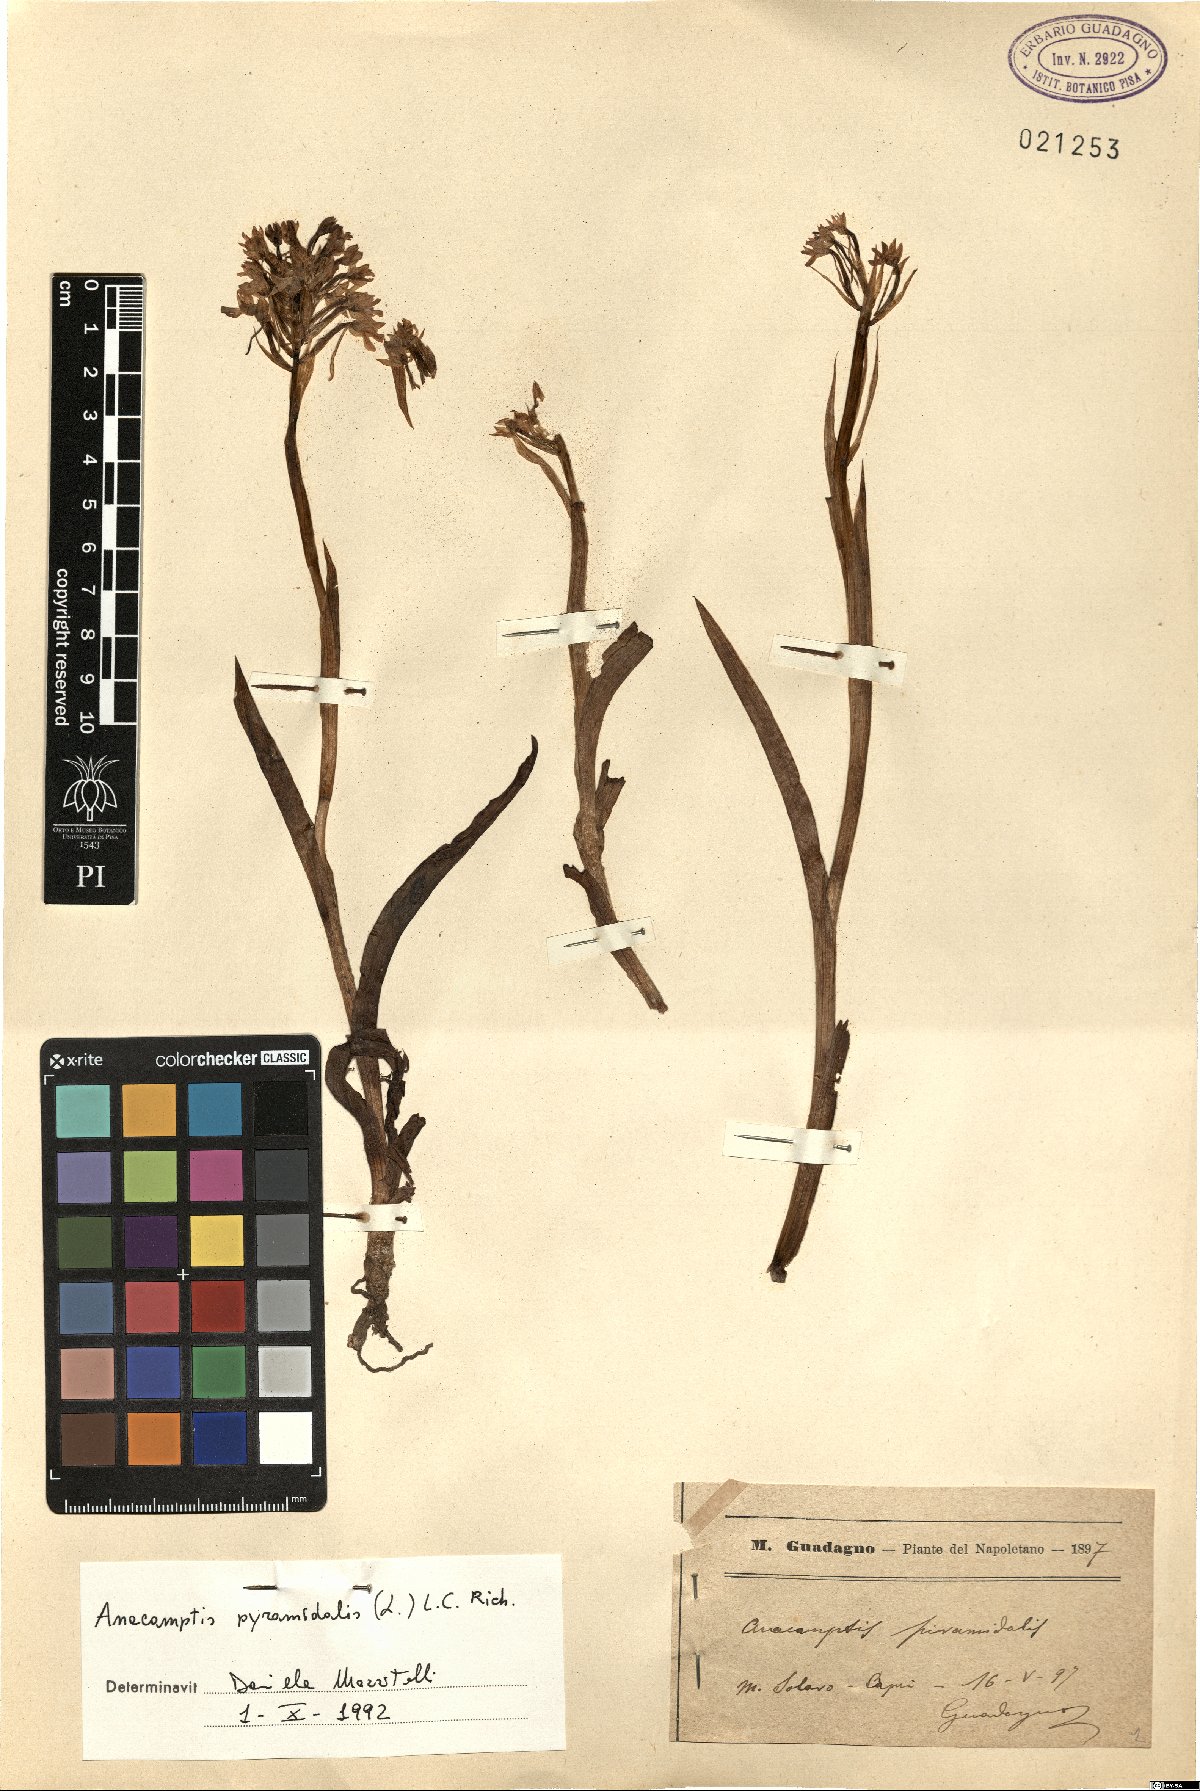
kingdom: Plantae
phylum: Tracheophyta
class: Liliopsida
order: Asparagales
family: Orchidaceae
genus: Anacamptis
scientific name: Anacamptis pyramidalis
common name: Pyramidal orchid
